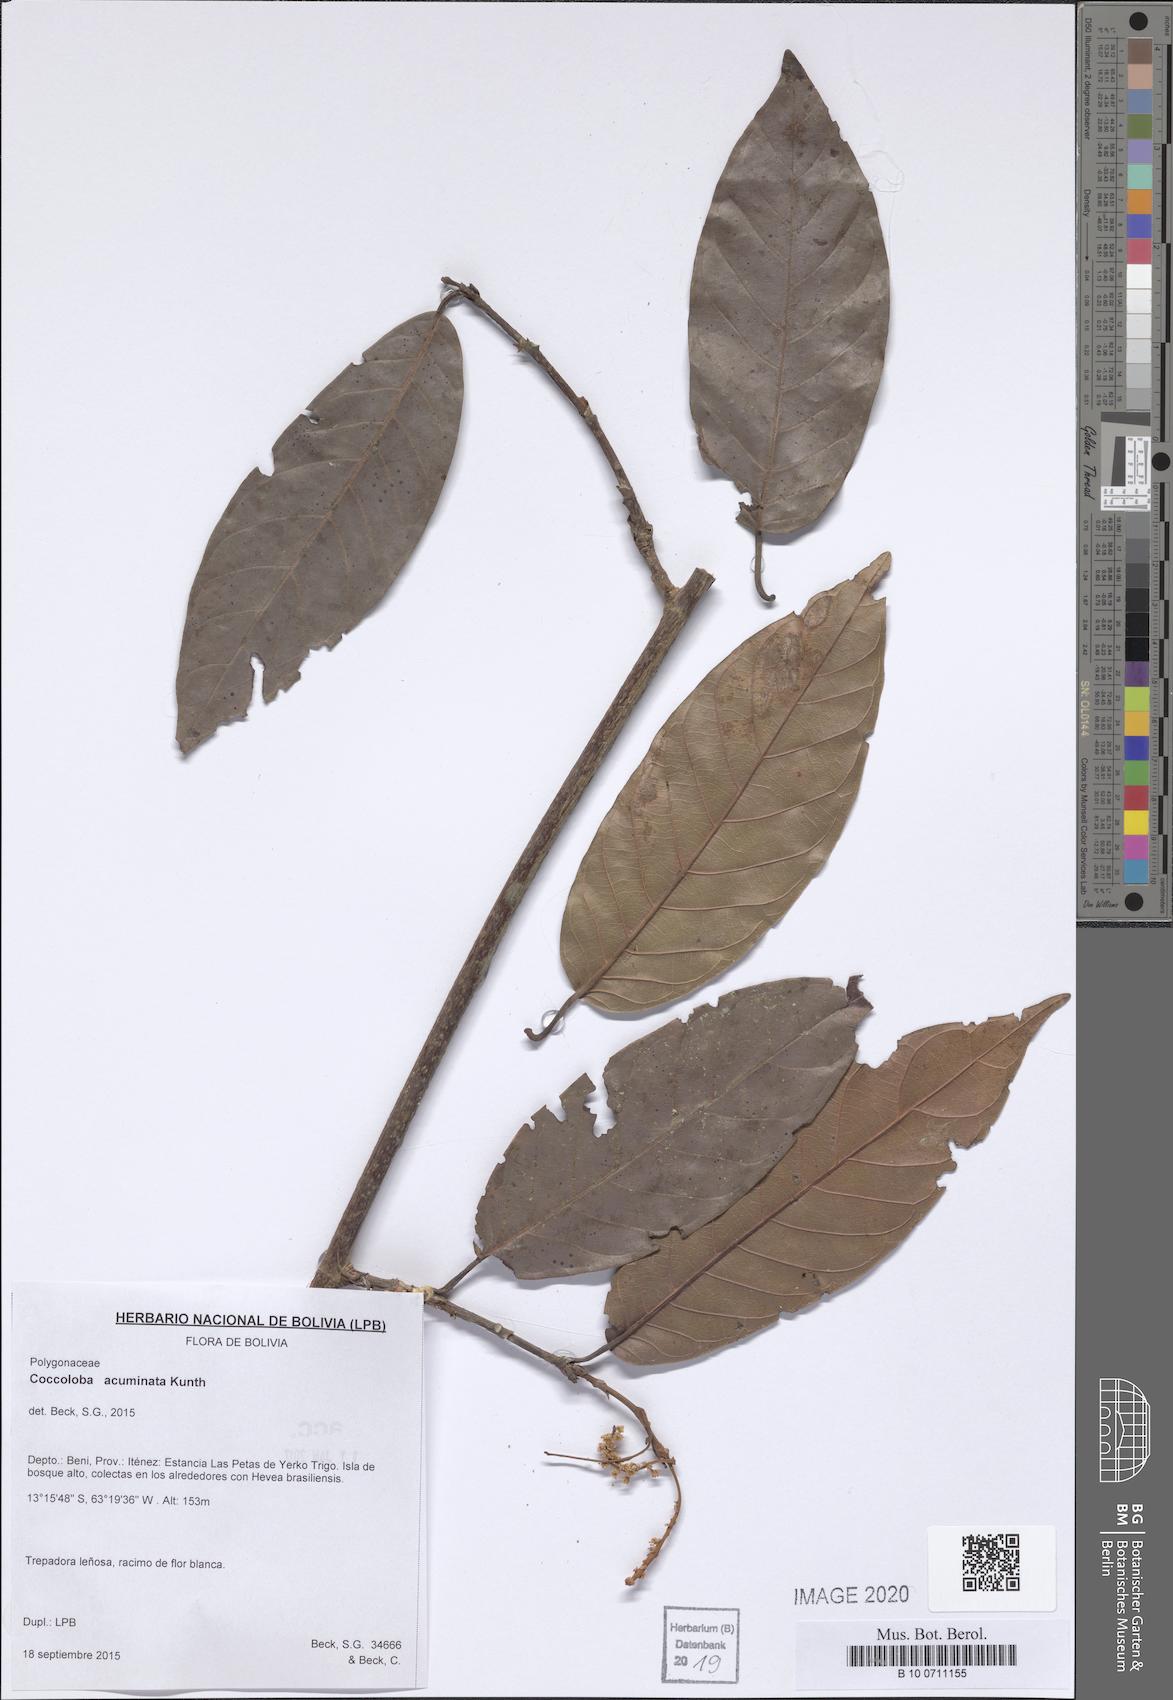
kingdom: Plantae
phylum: Tracheophyta
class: Magnoliopsida
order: Caryophyllales
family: Polygonaceae
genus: Coccoloba
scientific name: Coccoloba acuminata
